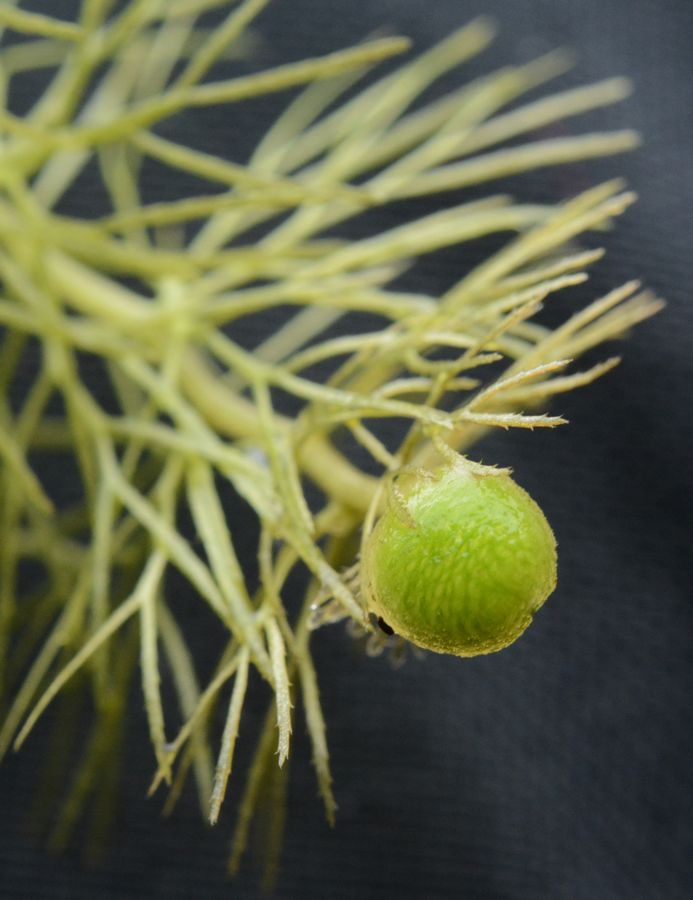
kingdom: Plantae
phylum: Tracheophyta
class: Magnoliopsida
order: Lamiales
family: Lentibulariaceae
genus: Utricularia
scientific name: Utricularia intermedia
